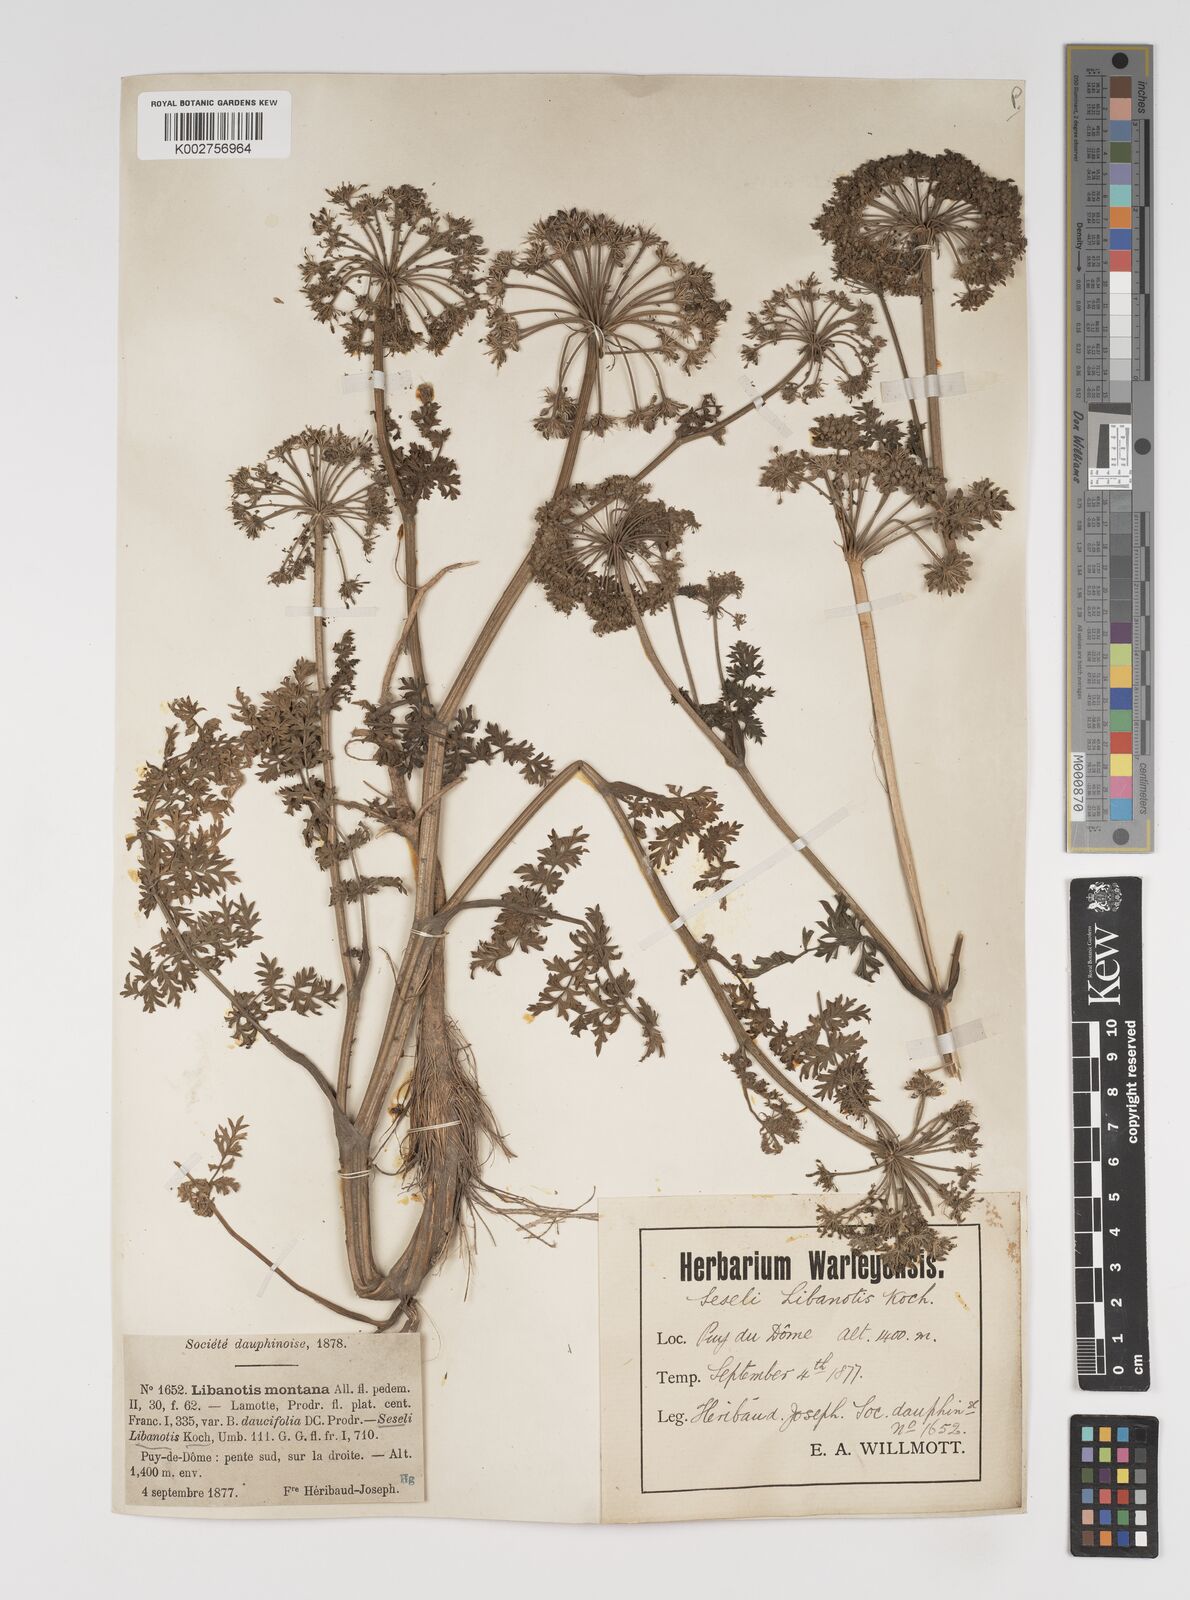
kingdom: Plantae
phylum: Tracheophyta
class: Magnoliopsida
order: Apiales
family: Apiaceae
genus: Seseli
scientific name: Seseli libanotis
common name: Mooncarrot
